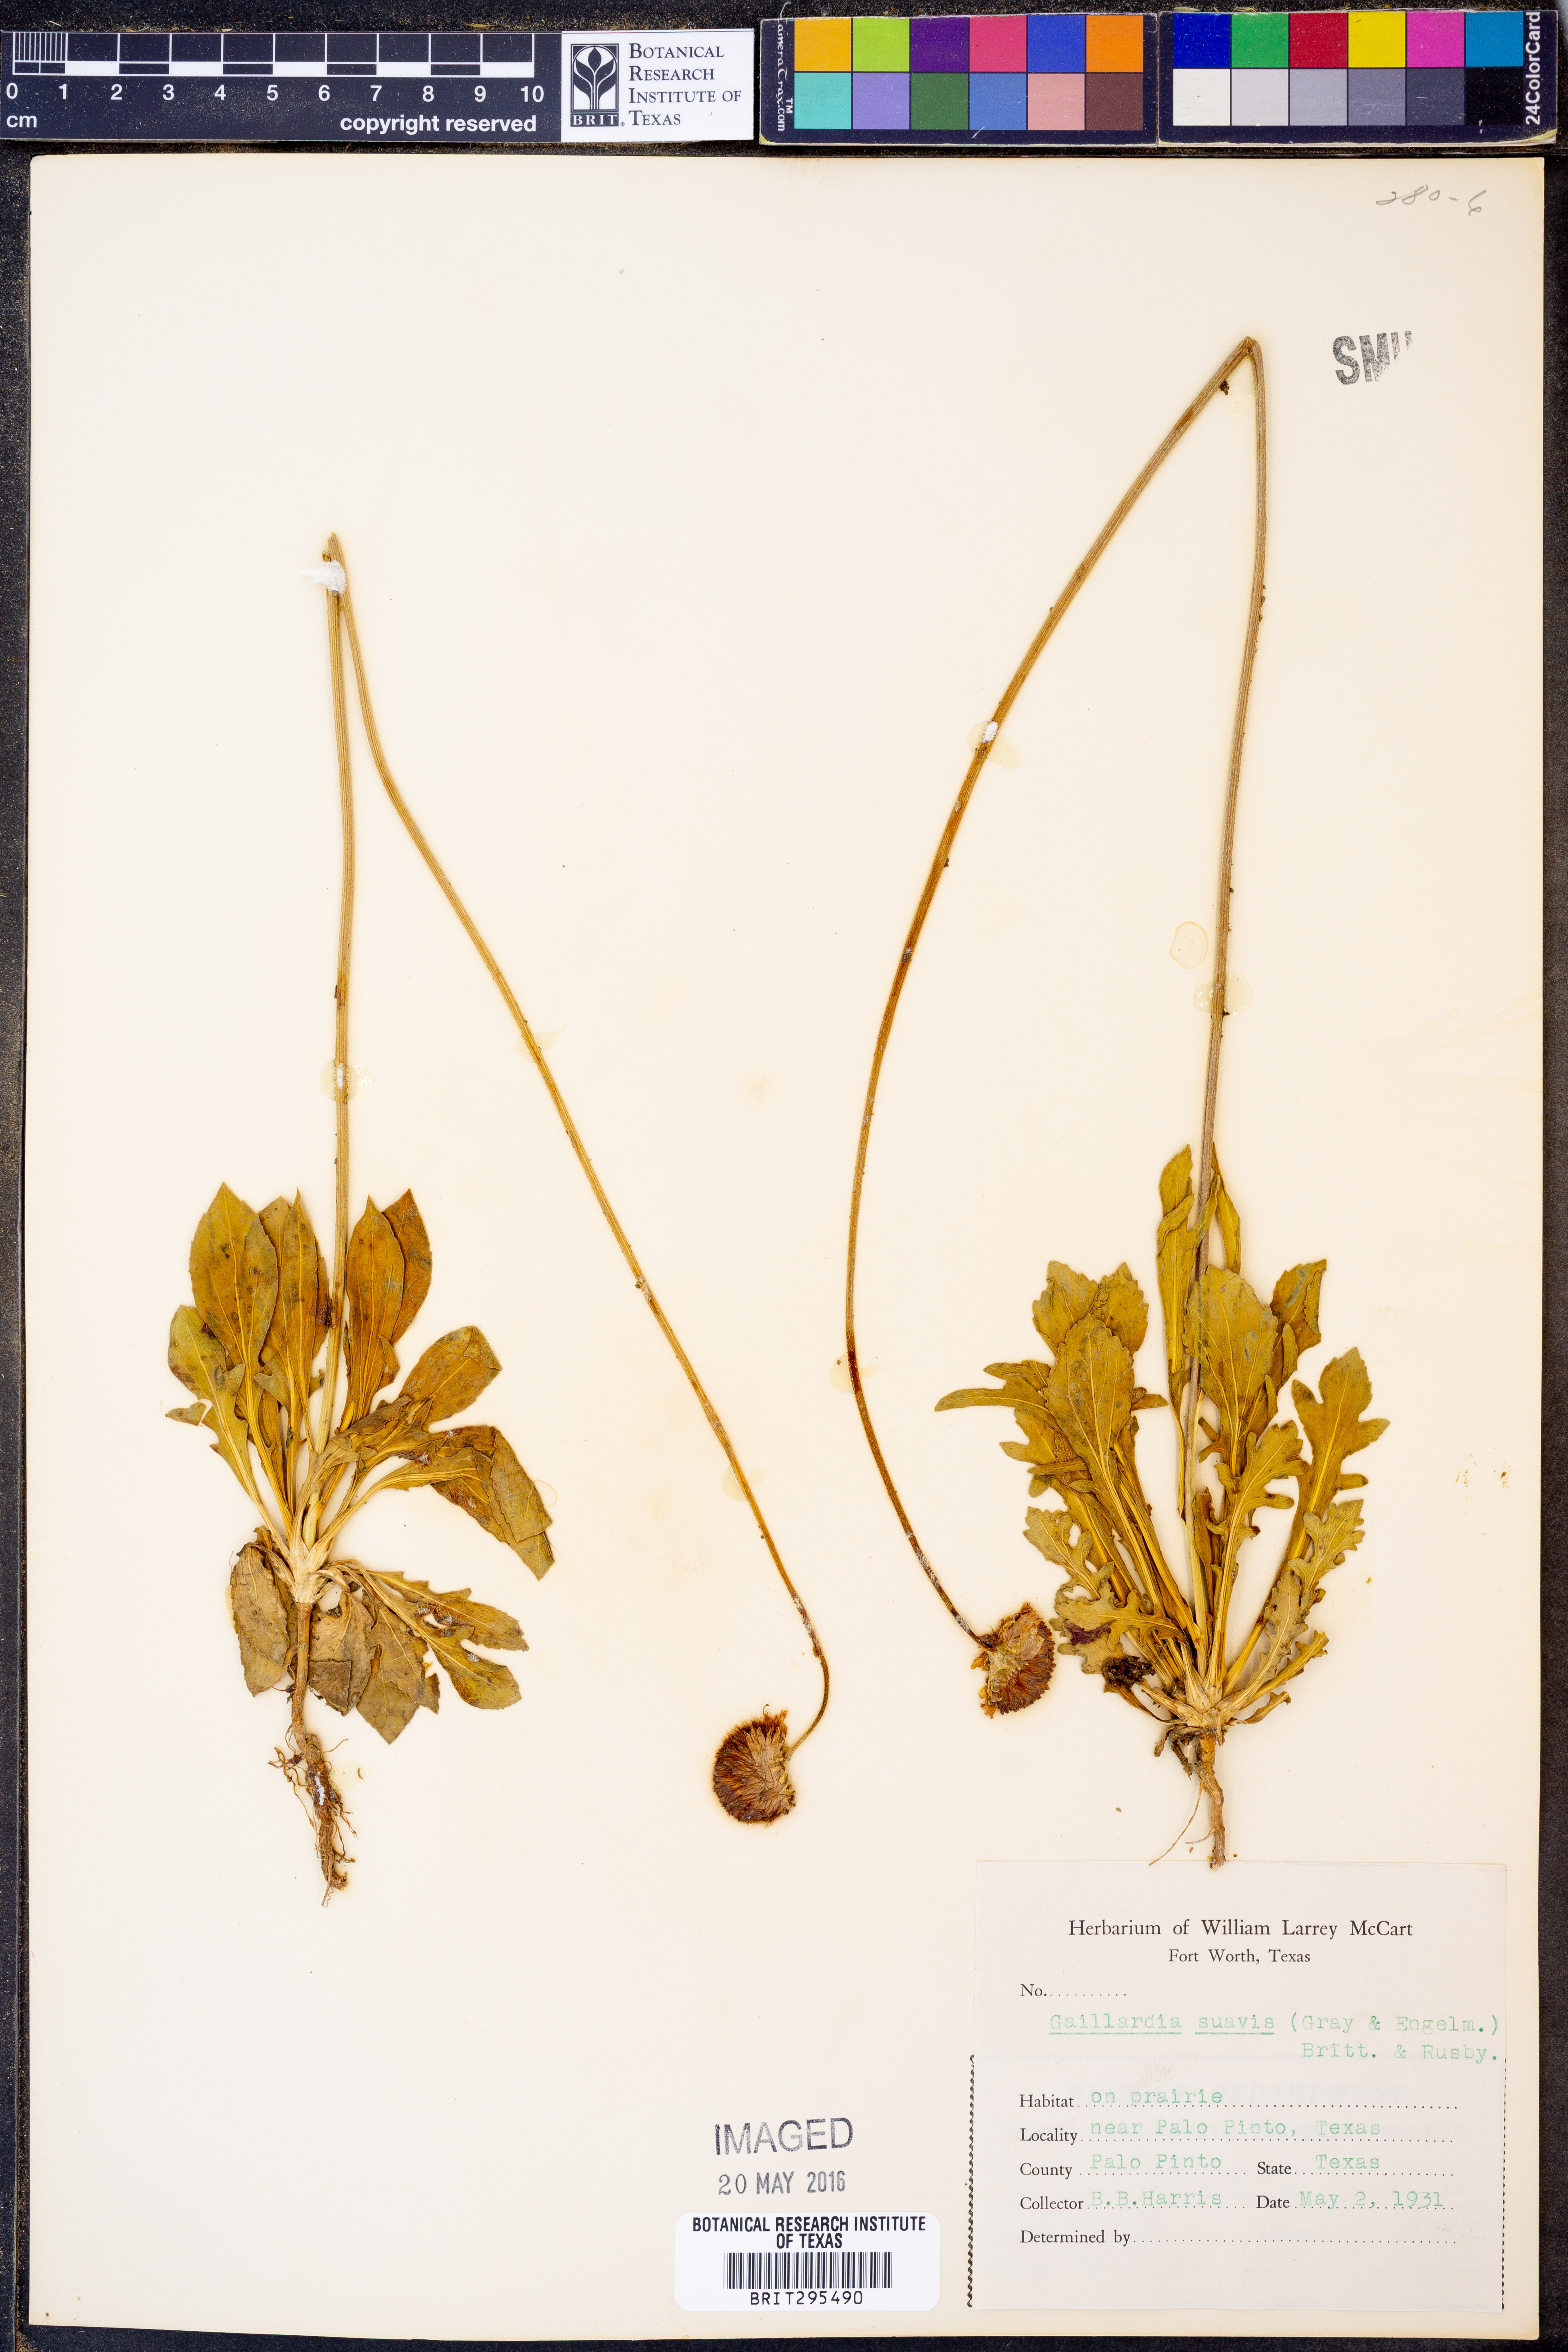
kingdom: Plantae
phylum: Tracheophyta
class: Magnoliopsida
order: Asterales
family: Asteraceae
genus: Gaillardia
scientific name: Gaillardia suavis
